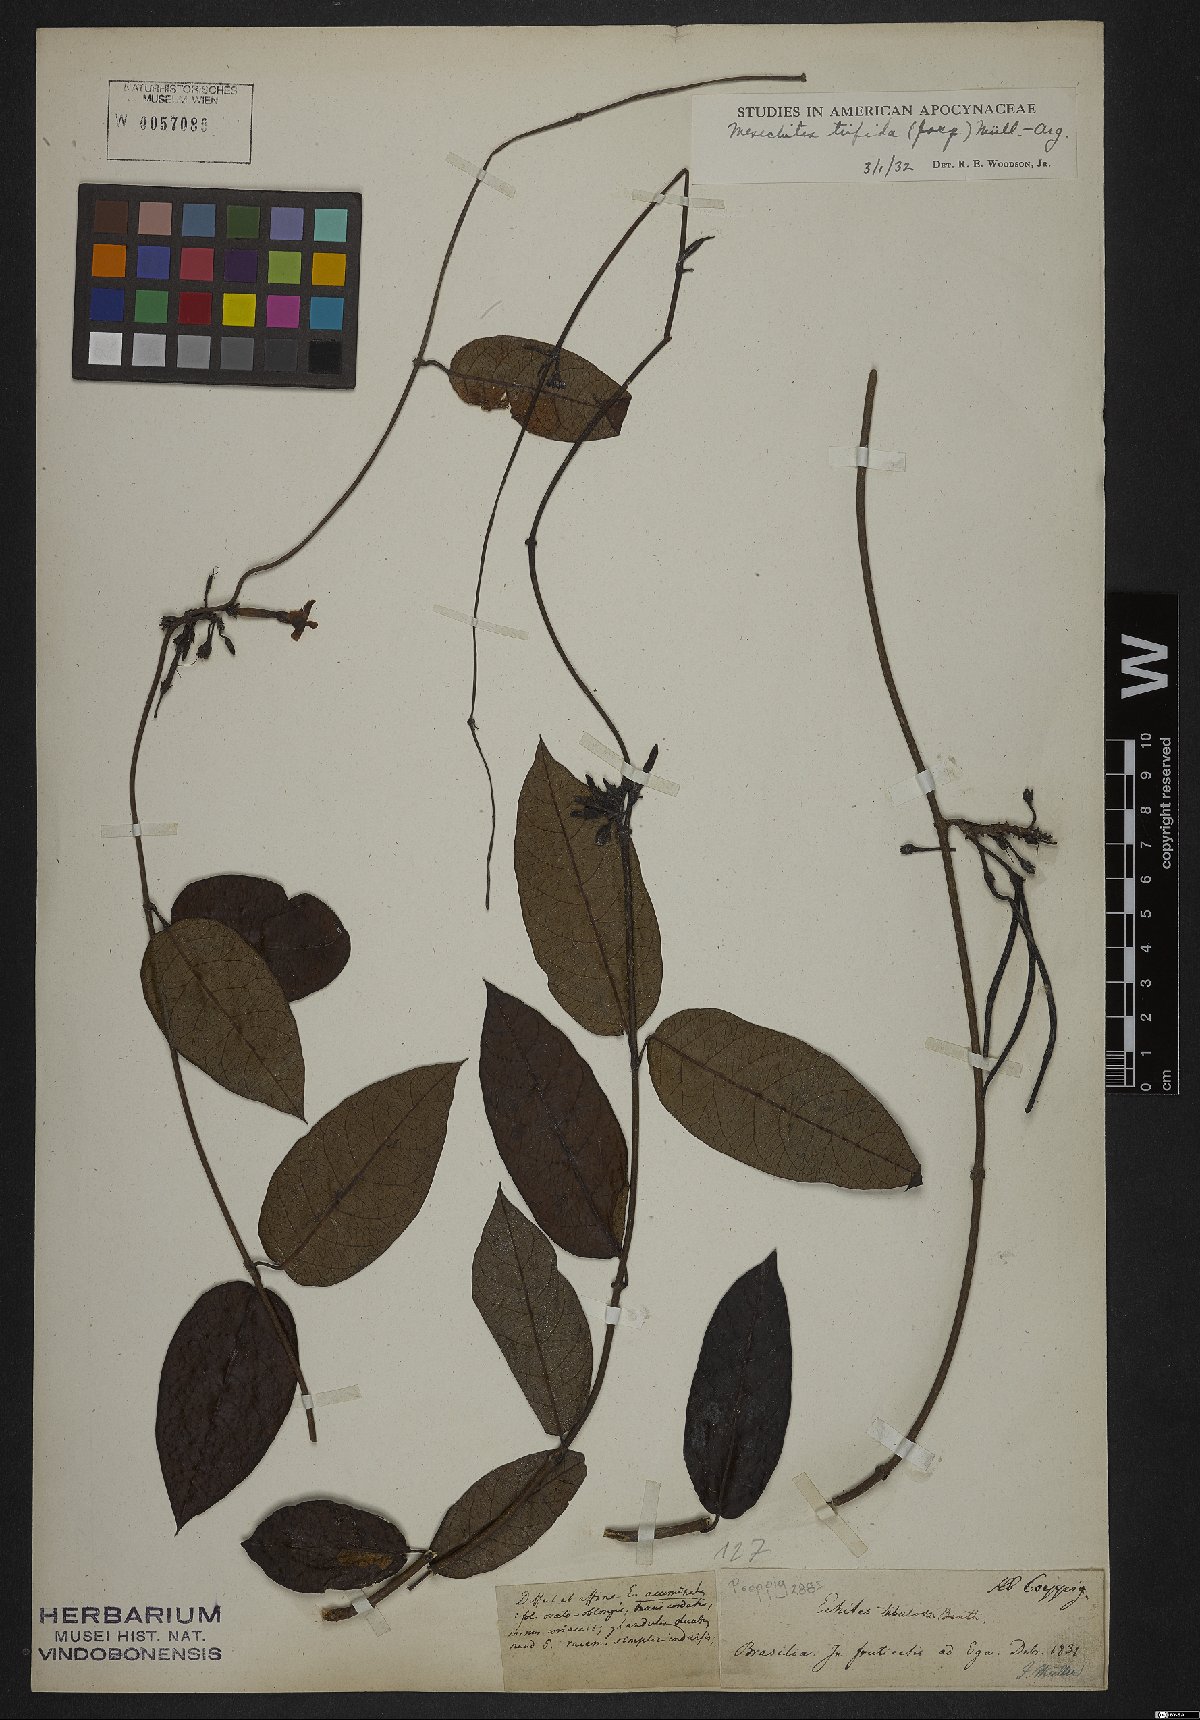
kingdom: Plantae
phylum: Tracheophyta
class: Magnoliopsida
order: Gentianales
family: Apocynaceae
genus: Mesechites
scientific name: Mesechites trifidus
